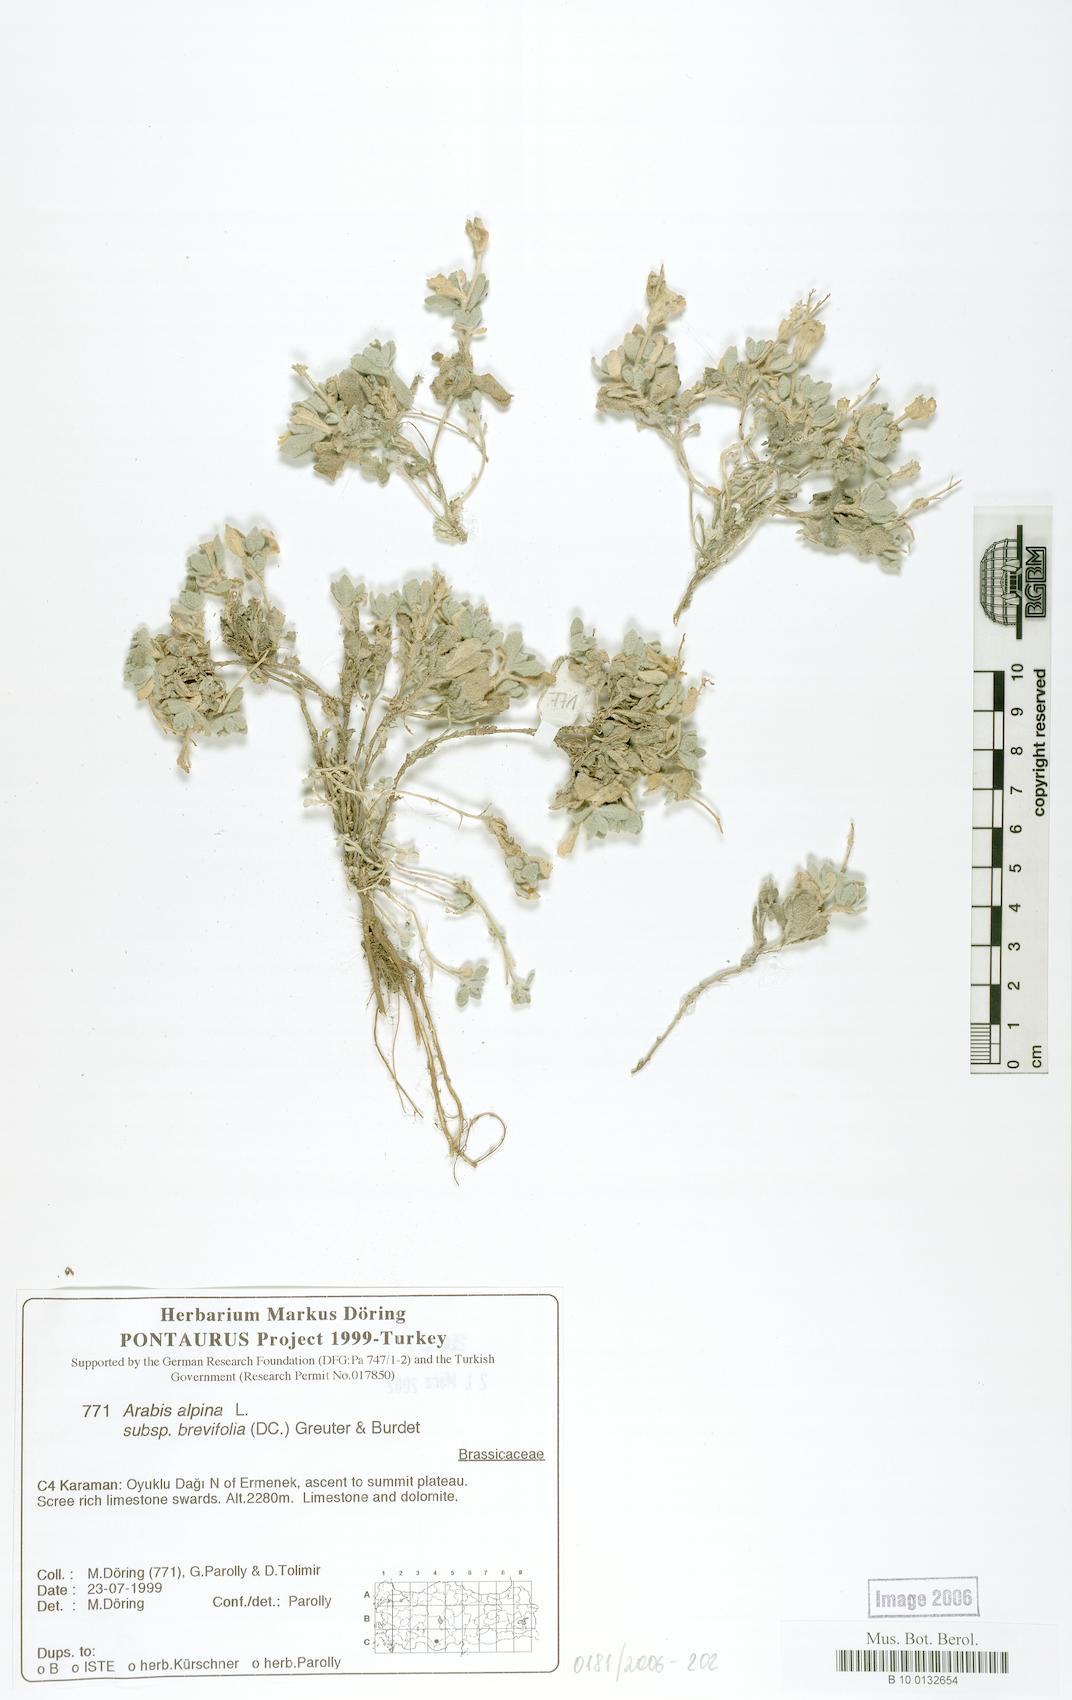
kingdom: Plantae
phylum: Tracheophyta
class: Magnoliopsida
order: Brassicales
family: Brassicaceae
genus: Arabis
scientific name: Arabis caucasica
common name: Gray rockcress
